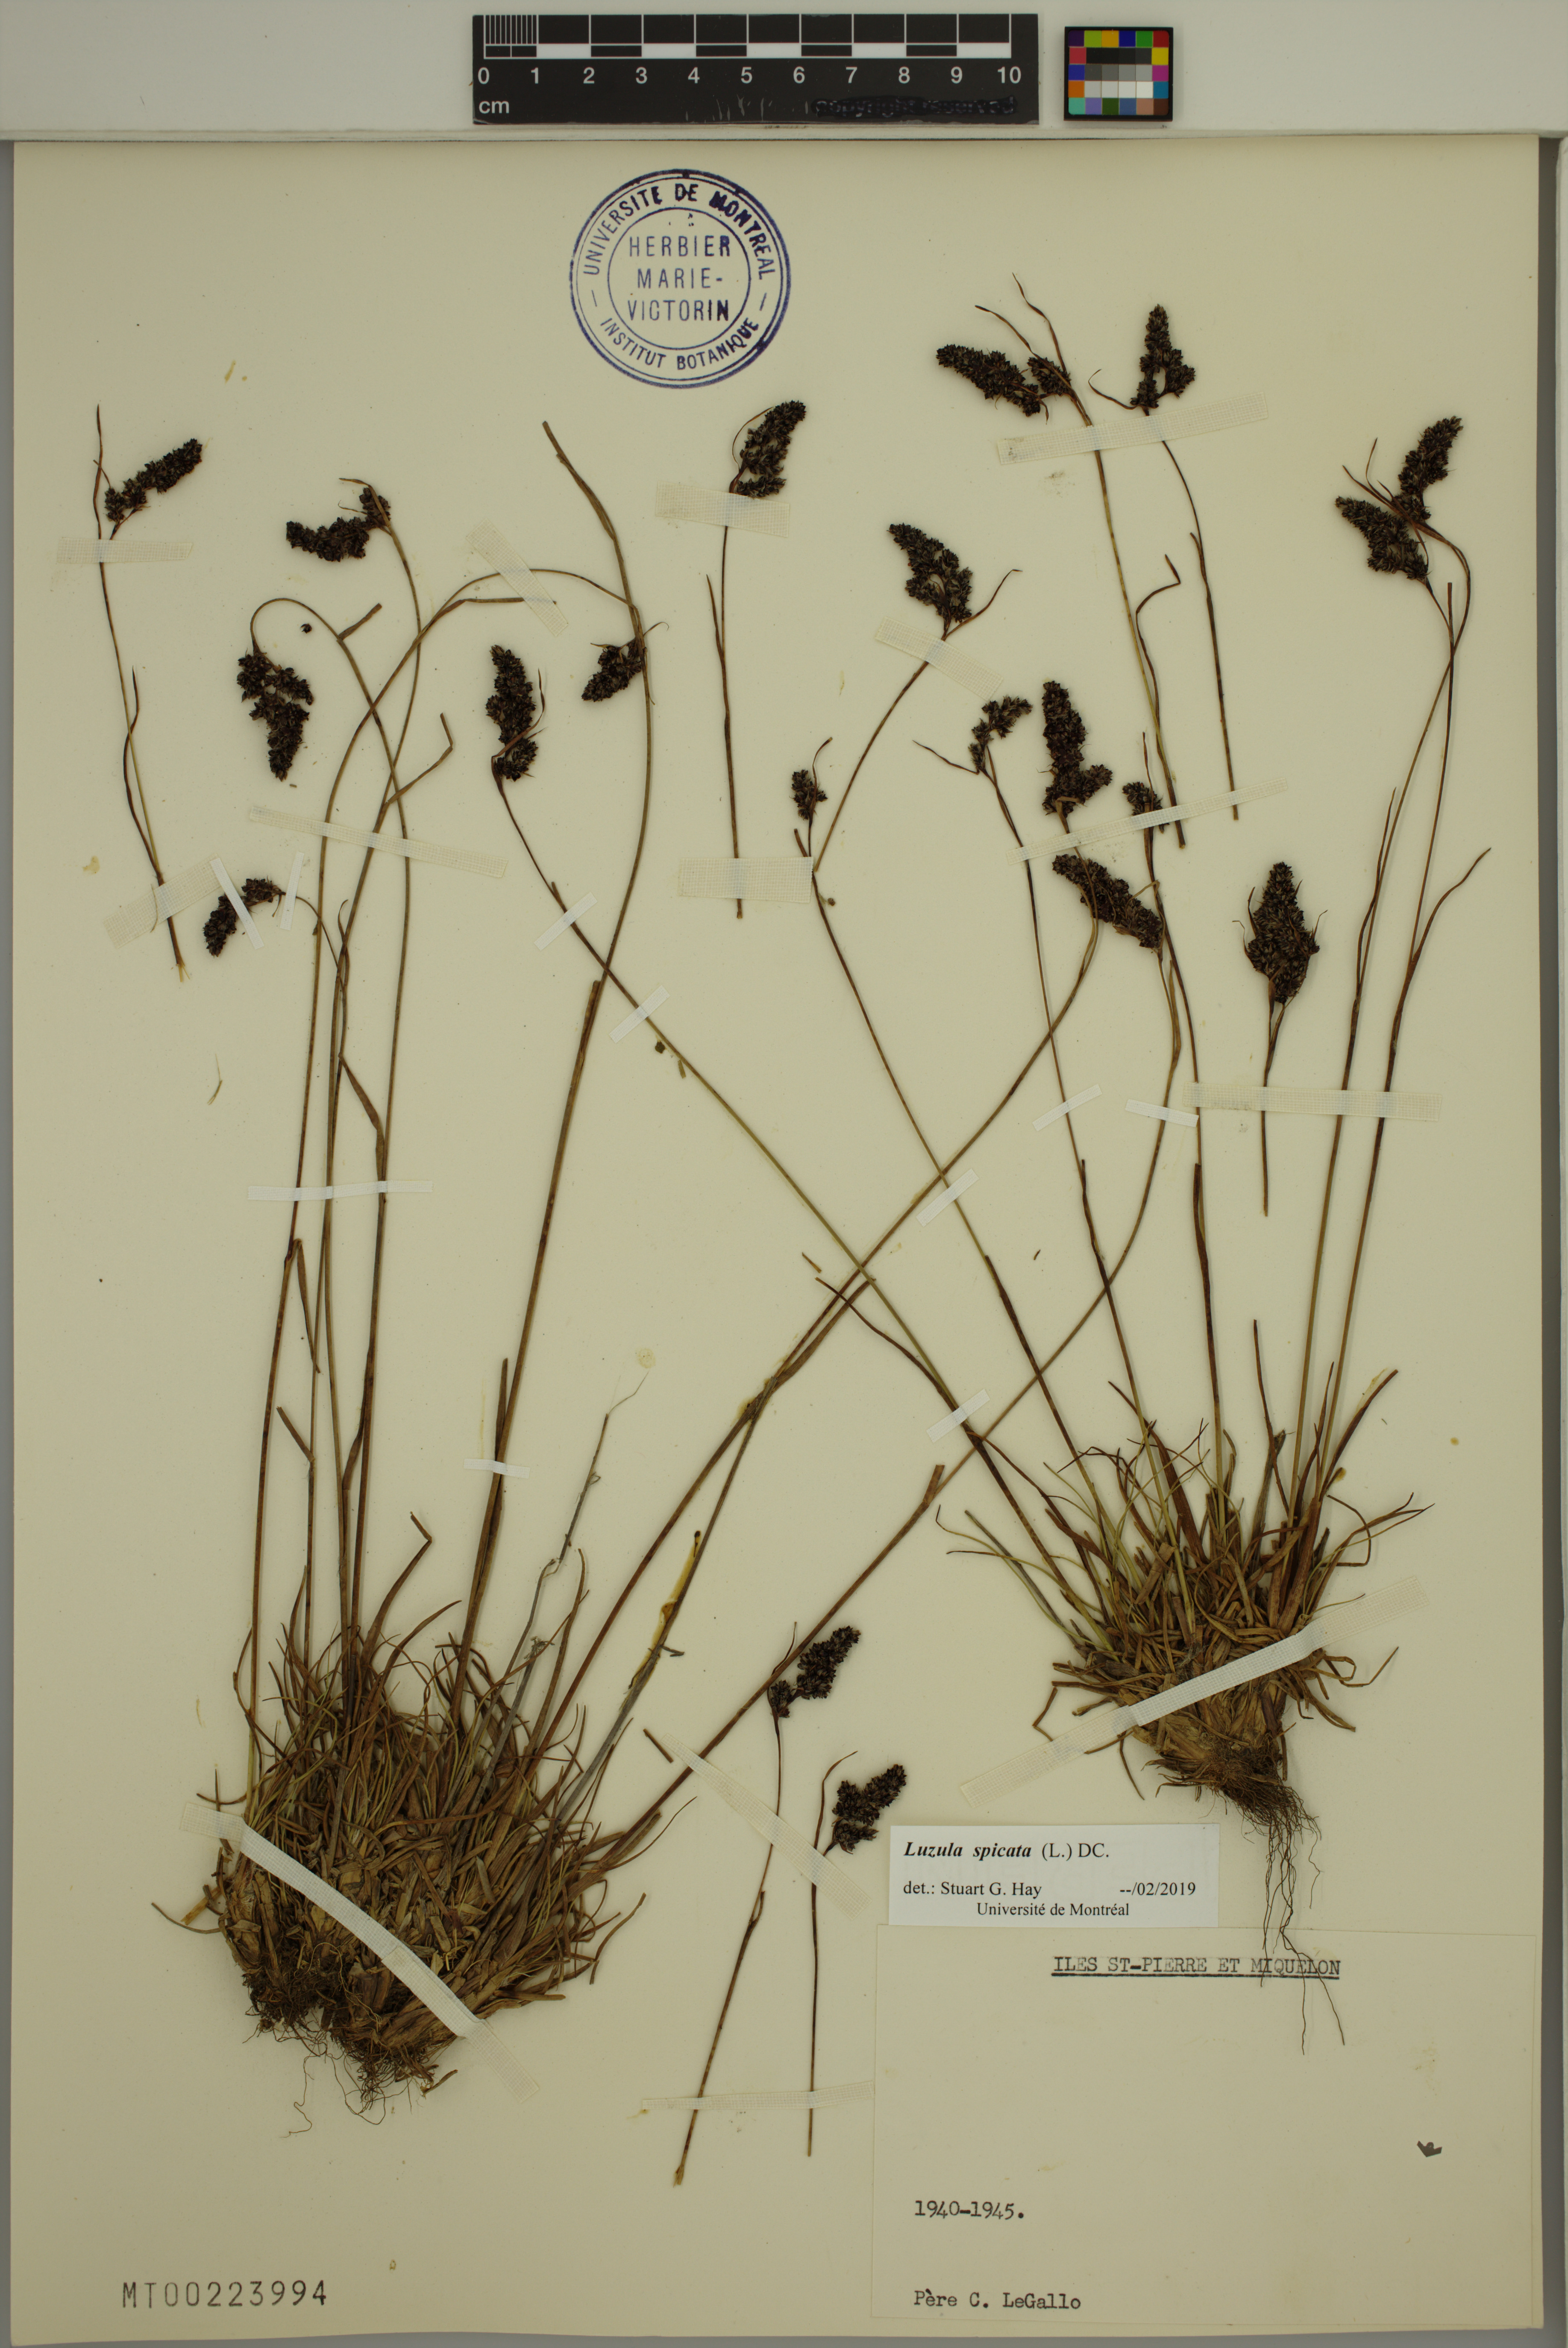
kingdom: Plantae
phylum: Tracheophyta
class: Liliopsida
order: Poales
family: Juncaceae
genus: Luzula
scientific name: Luzula spicata
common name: Spiked wood-rush
